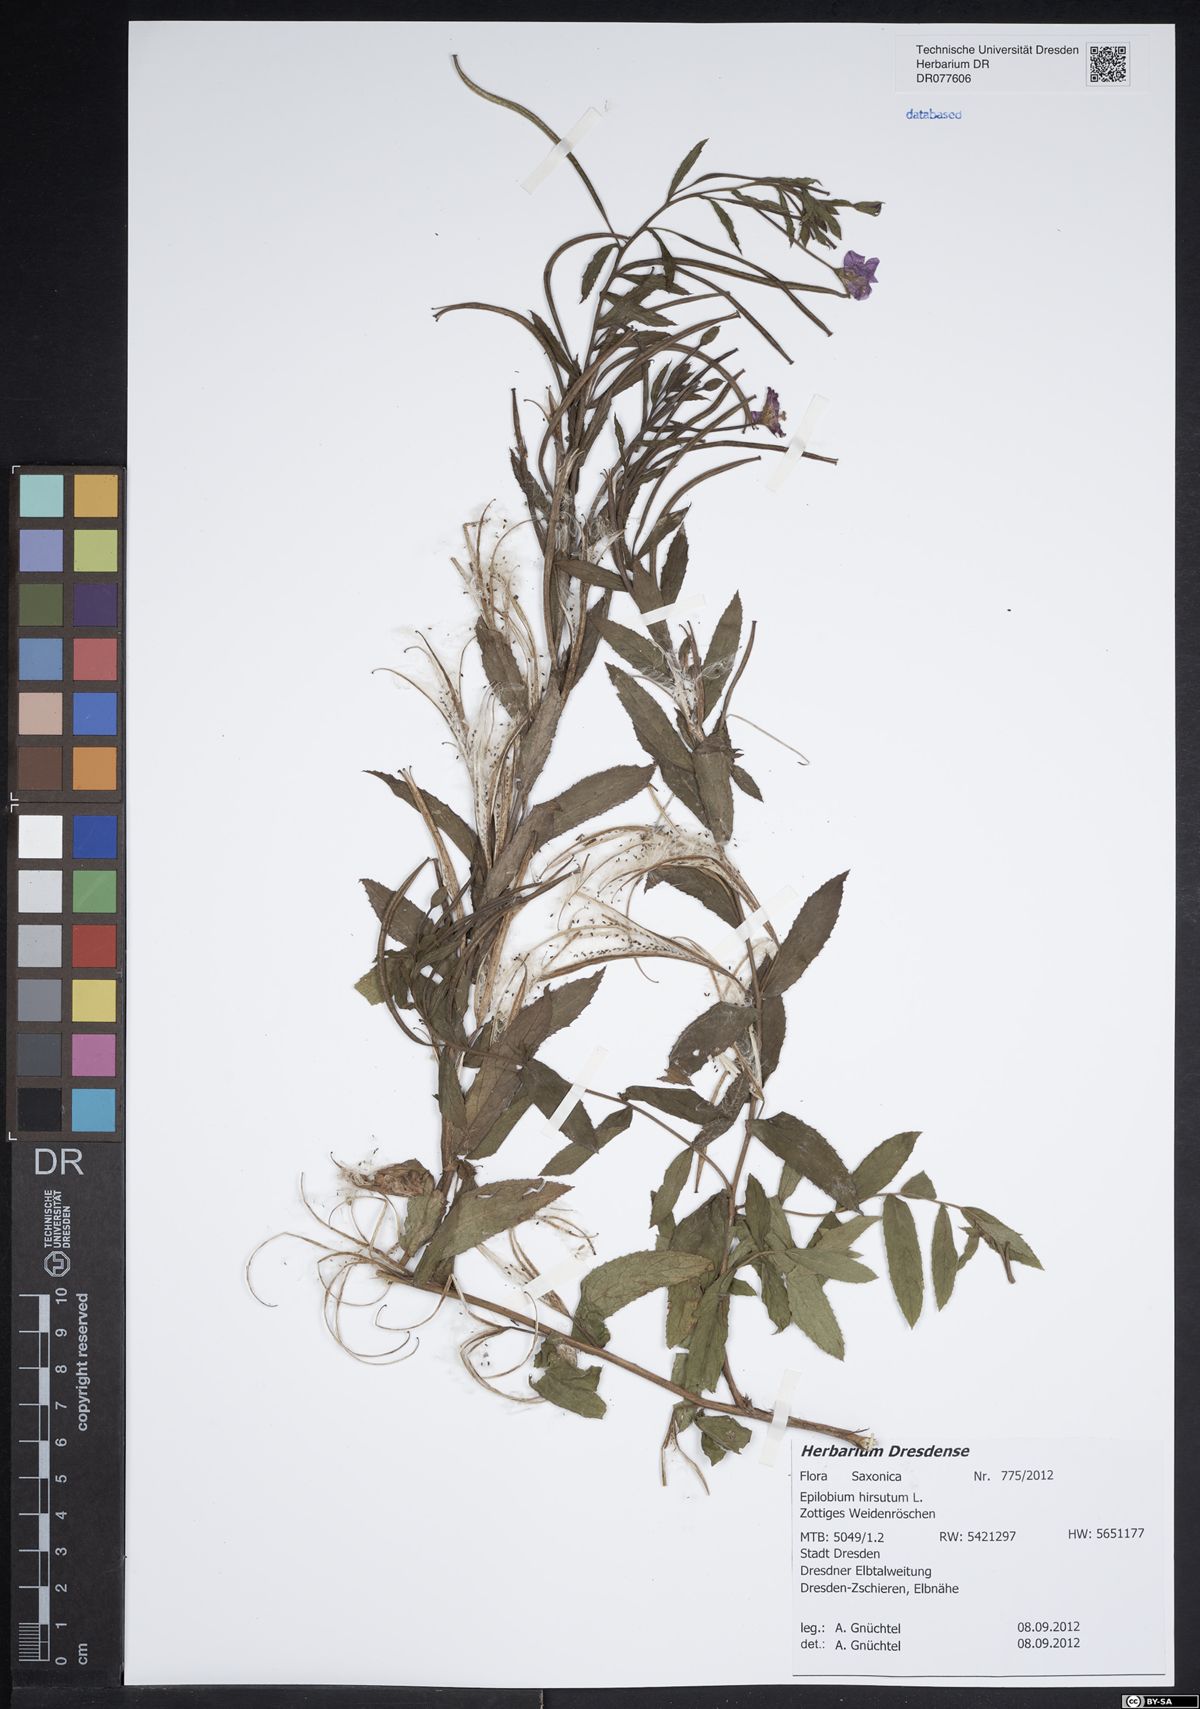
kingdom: Plantae
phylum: Tracheophyta
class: Magnoliopsida
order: Myrtales
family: Onagraceae
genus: Epilobium
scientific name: Epilobium hirsutum
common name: Great willowherb
